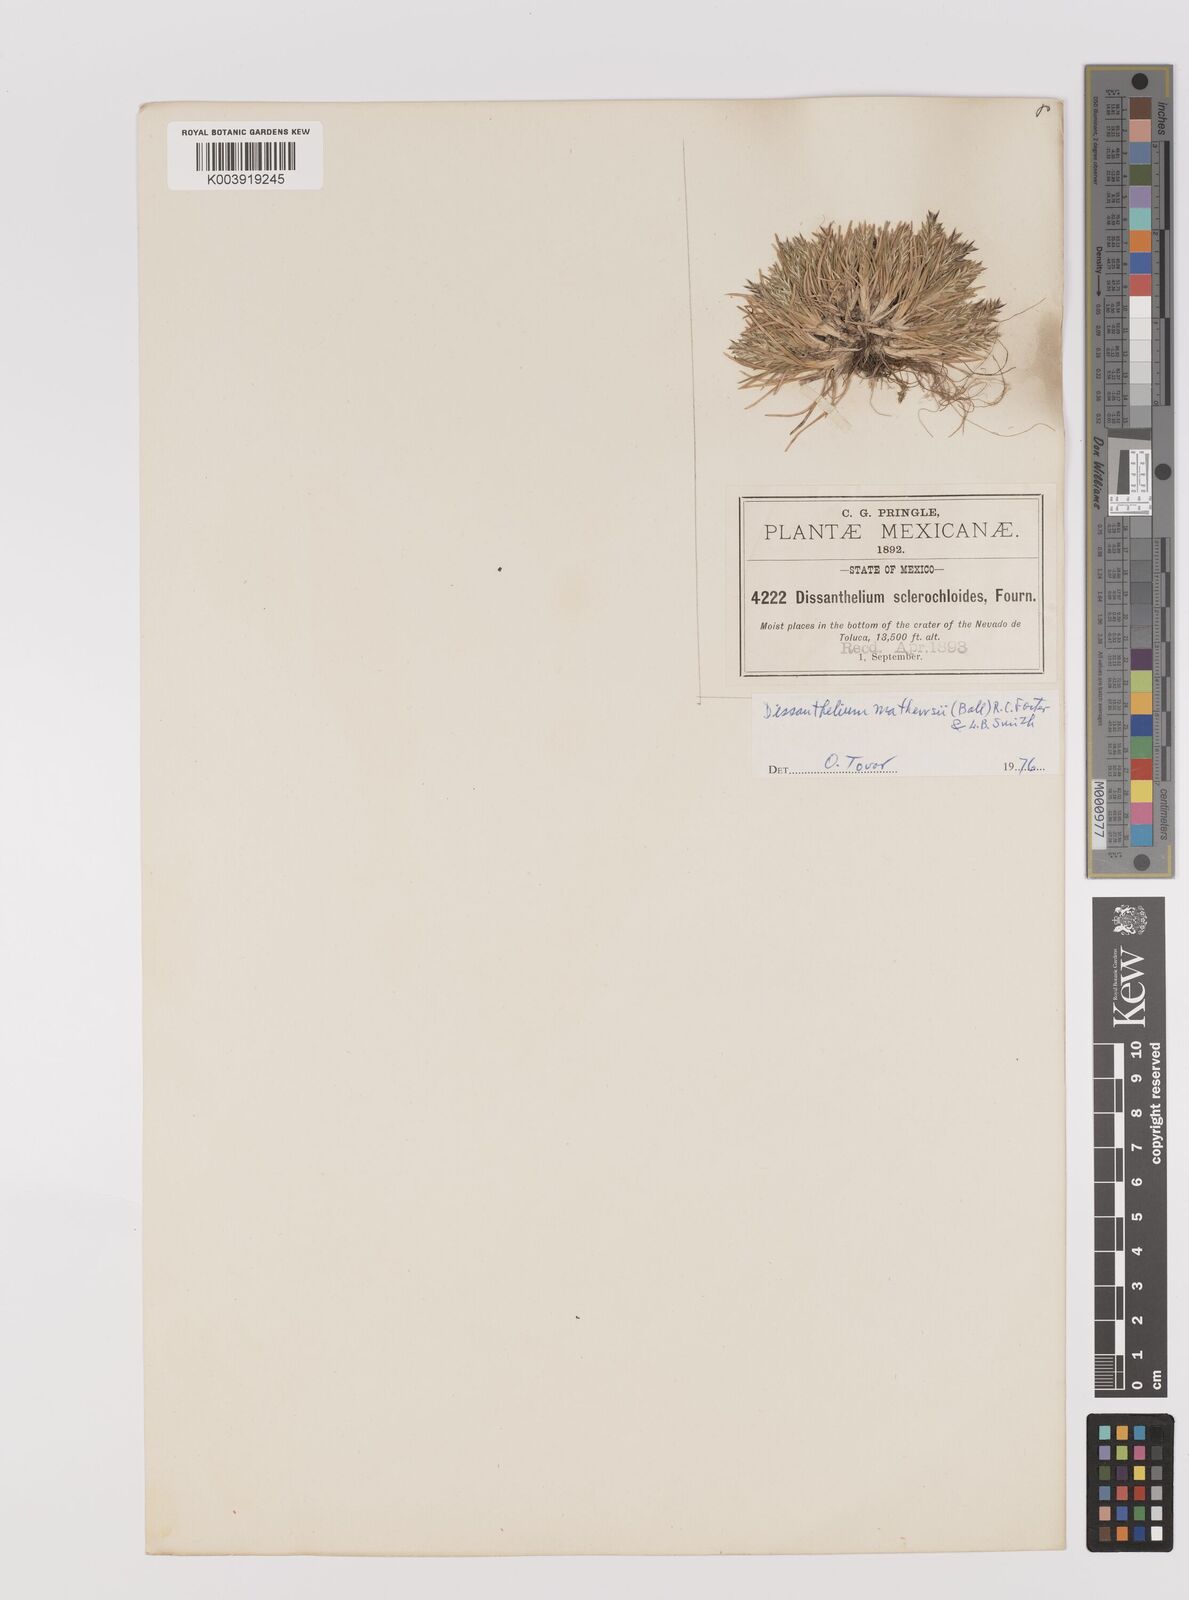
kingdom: Plantae
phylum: Tracheophyta
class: Liliopsida
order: Poales
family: Poaceae
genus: Poa
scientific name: Poa calycina
